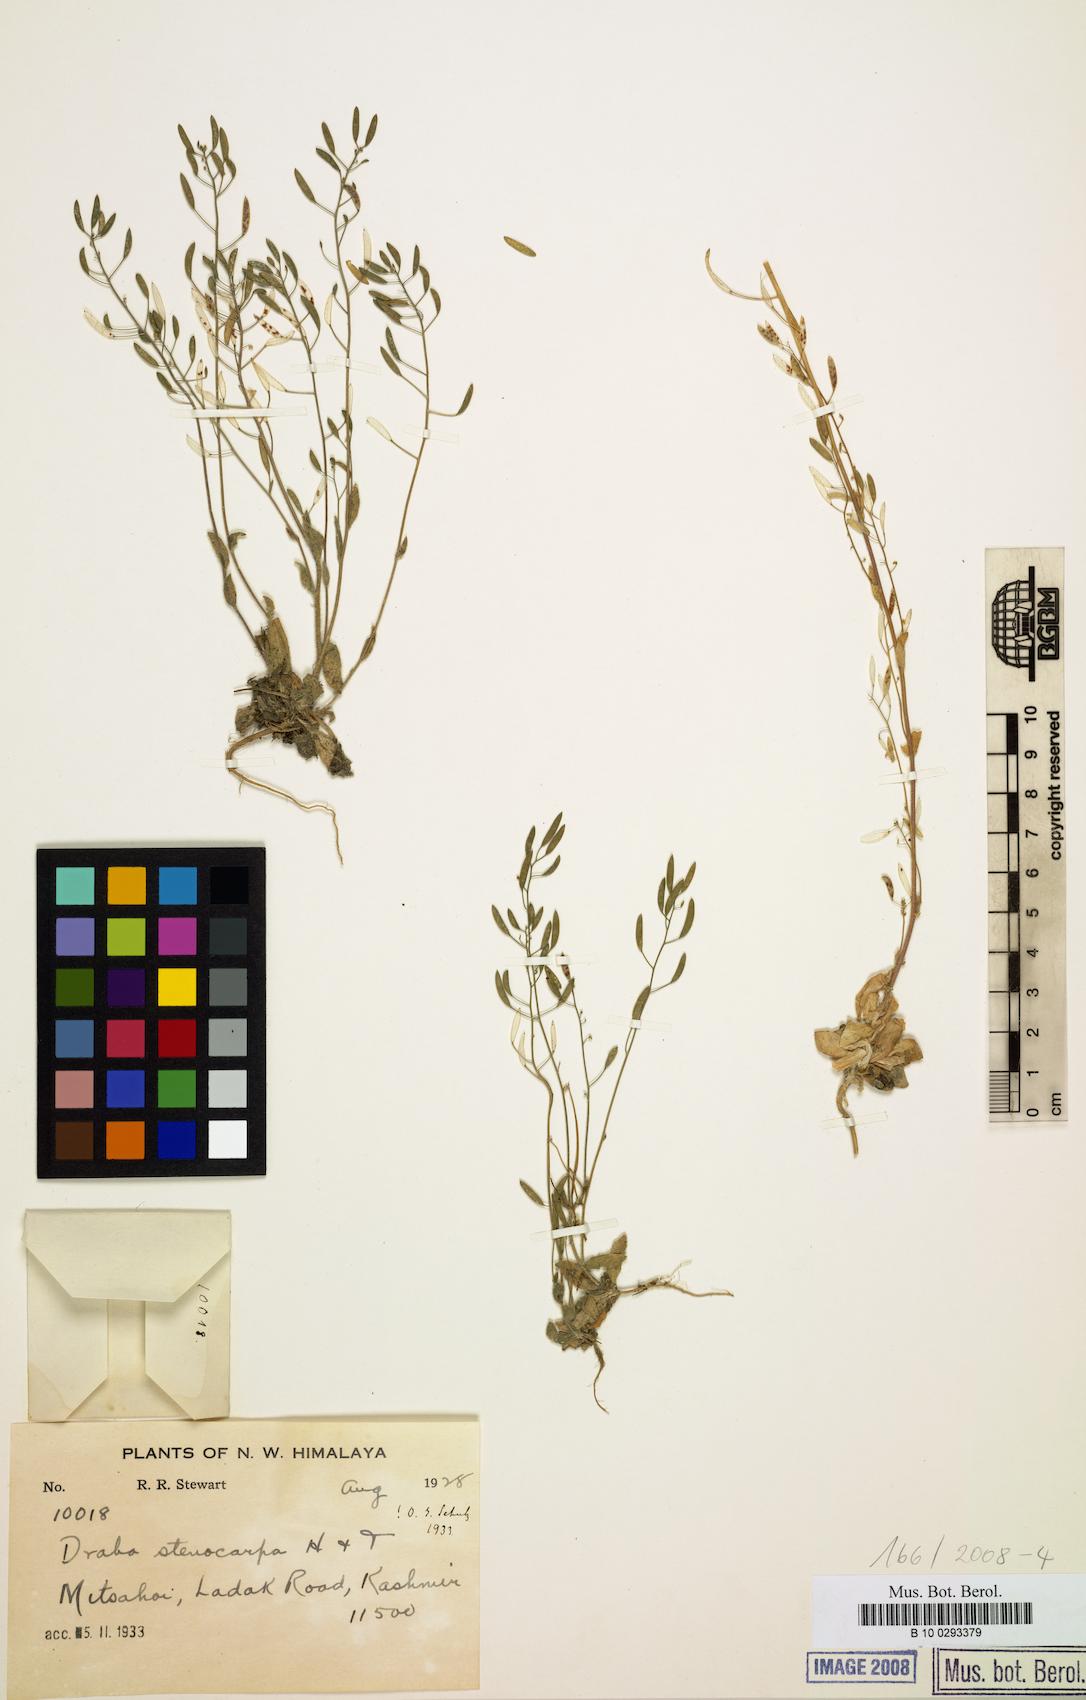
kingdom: Plantae
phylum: Tracheophyta
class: Magnoliopsida
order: Brassicales
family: Brassicaceae
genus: Draba
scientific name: Draba stenocarpa
